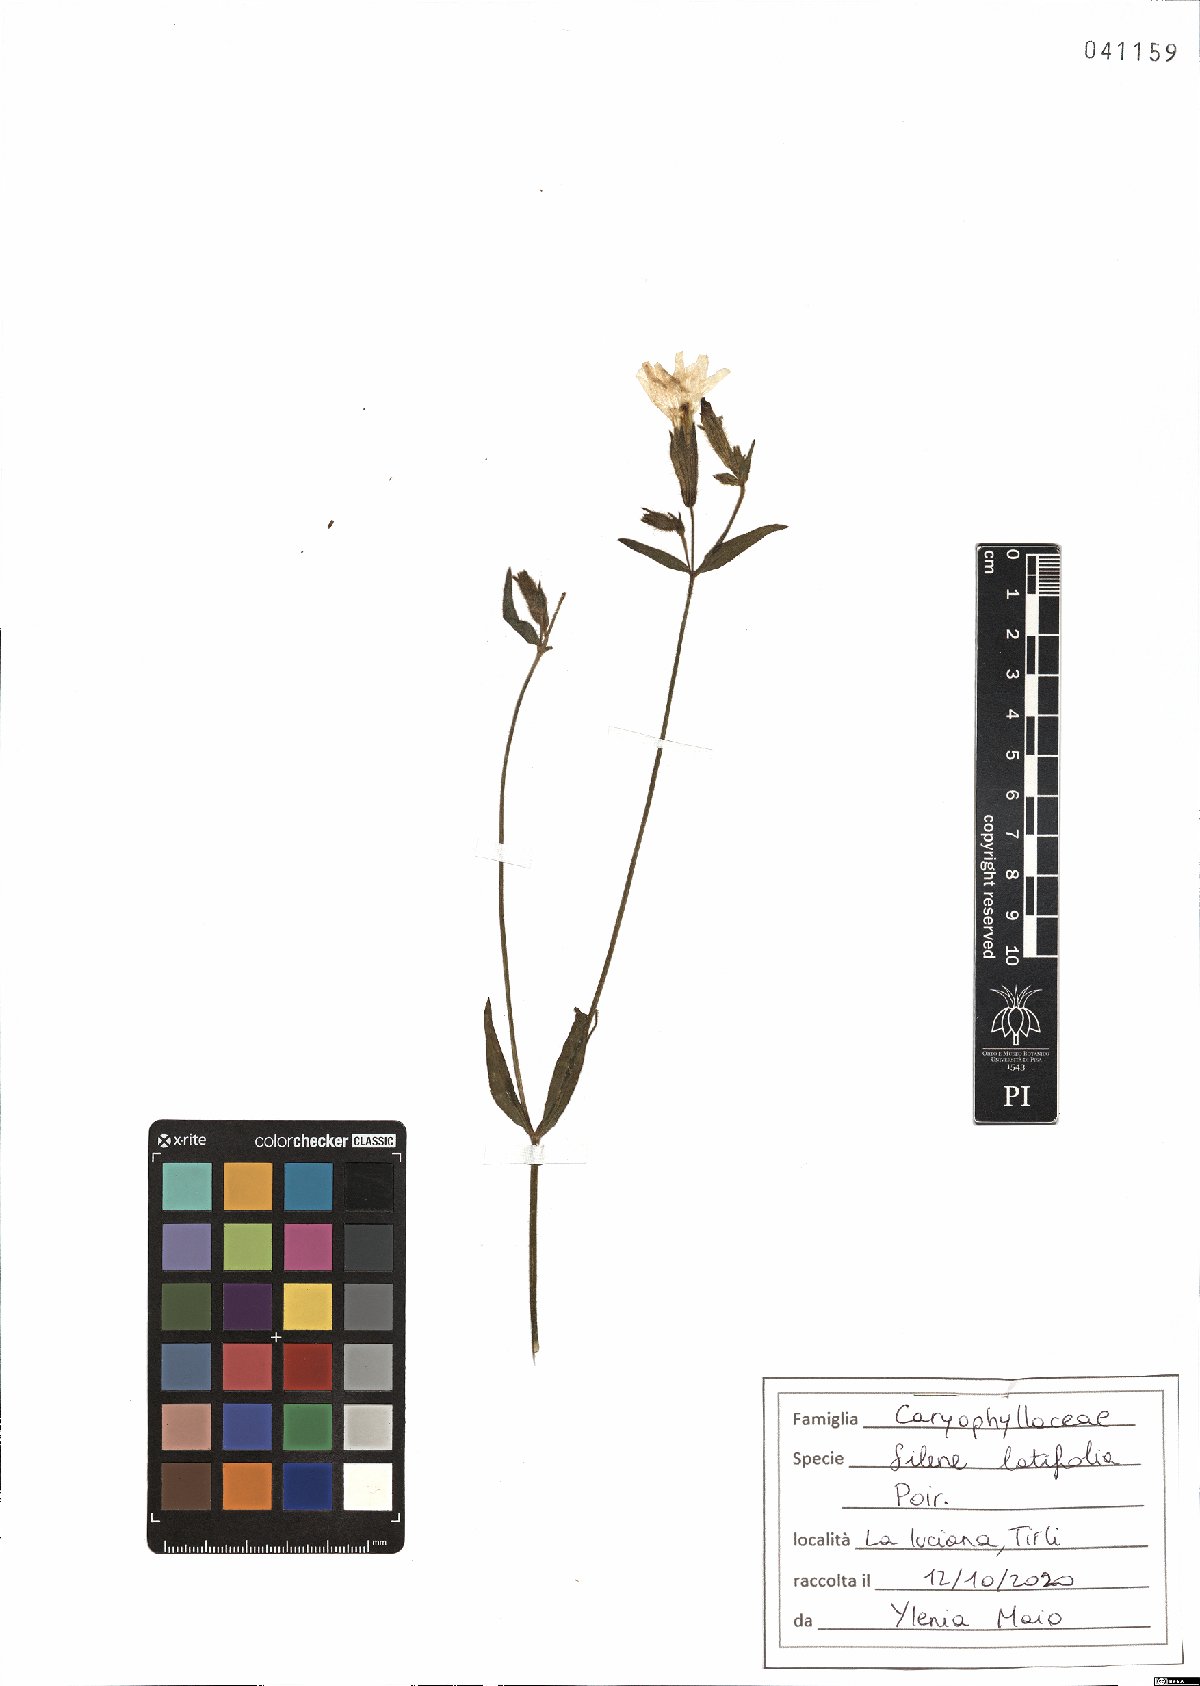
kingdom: Plantae
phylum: Tracheophyta
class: Magnoliopsida
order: Caryophyllales
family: Caryophyllaceae
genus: Silene
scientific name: Silene latifolia
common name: White campion
